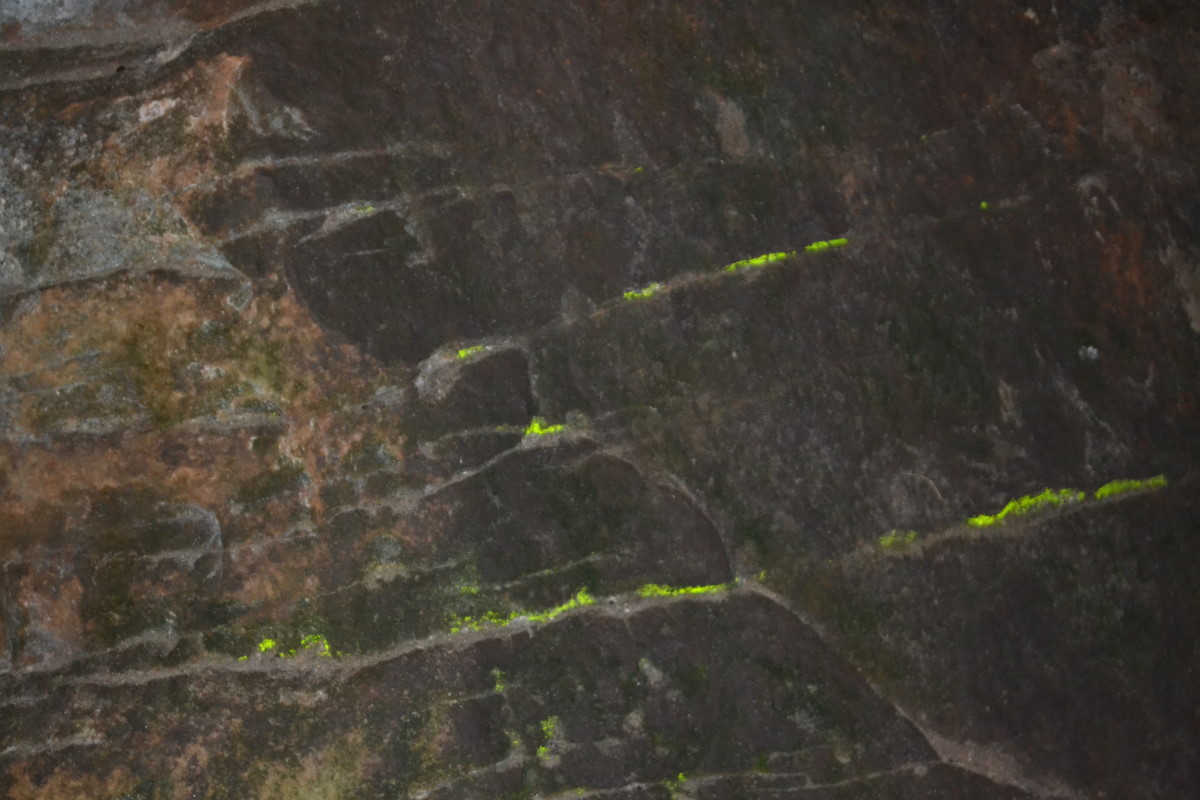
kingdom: Plantae
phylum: Bryophyta
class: Bryopsida
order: Dicranales
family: Schistostegaceae
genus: Schistostega
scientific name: Schistostega pennata
